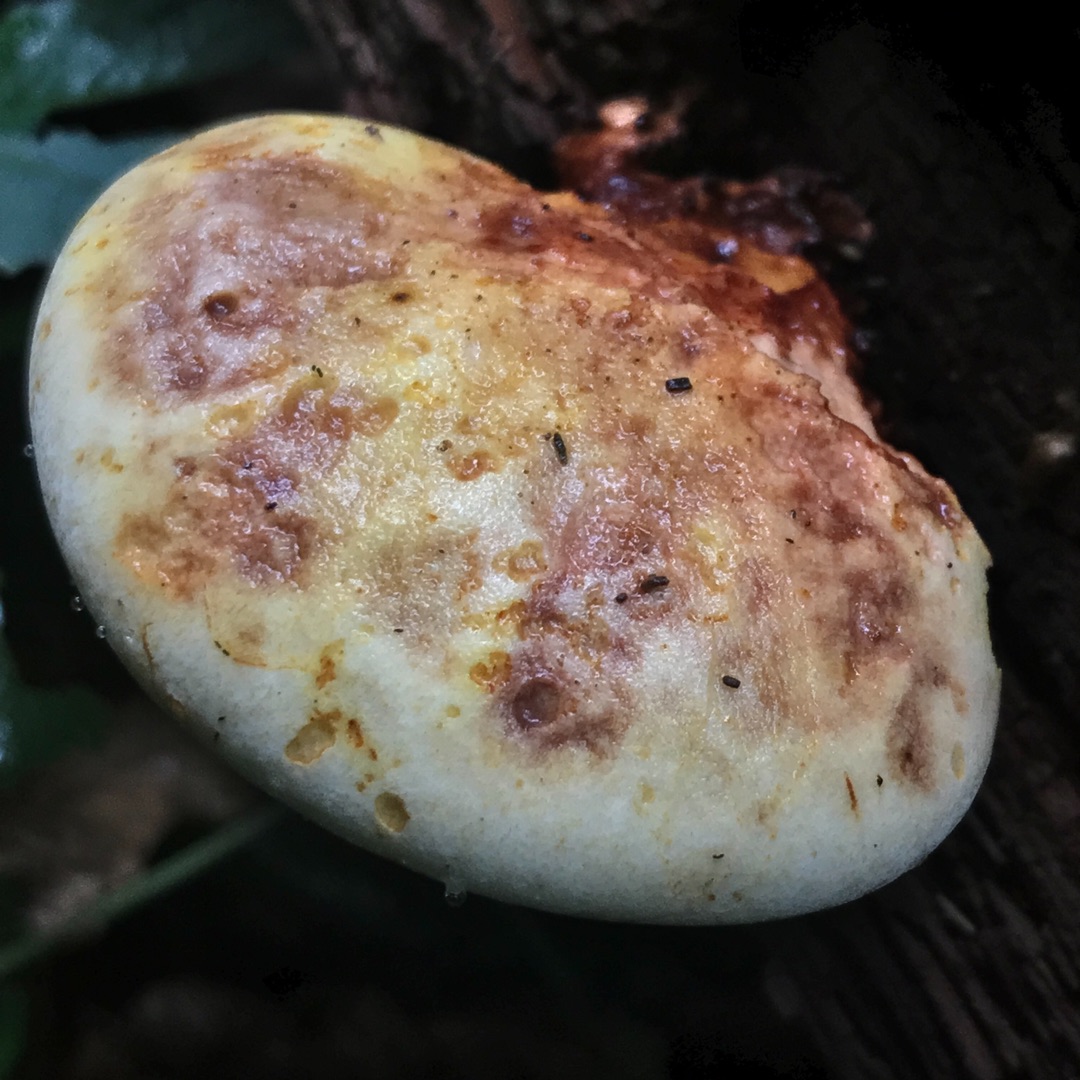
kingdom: Fungi
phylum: Basidiomycota
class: Agaricomycetes
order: Polyporales
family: Fomitopsidaceae
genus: Buglossoporus
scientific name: Buglossoporus quercinus
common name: Egetunge
